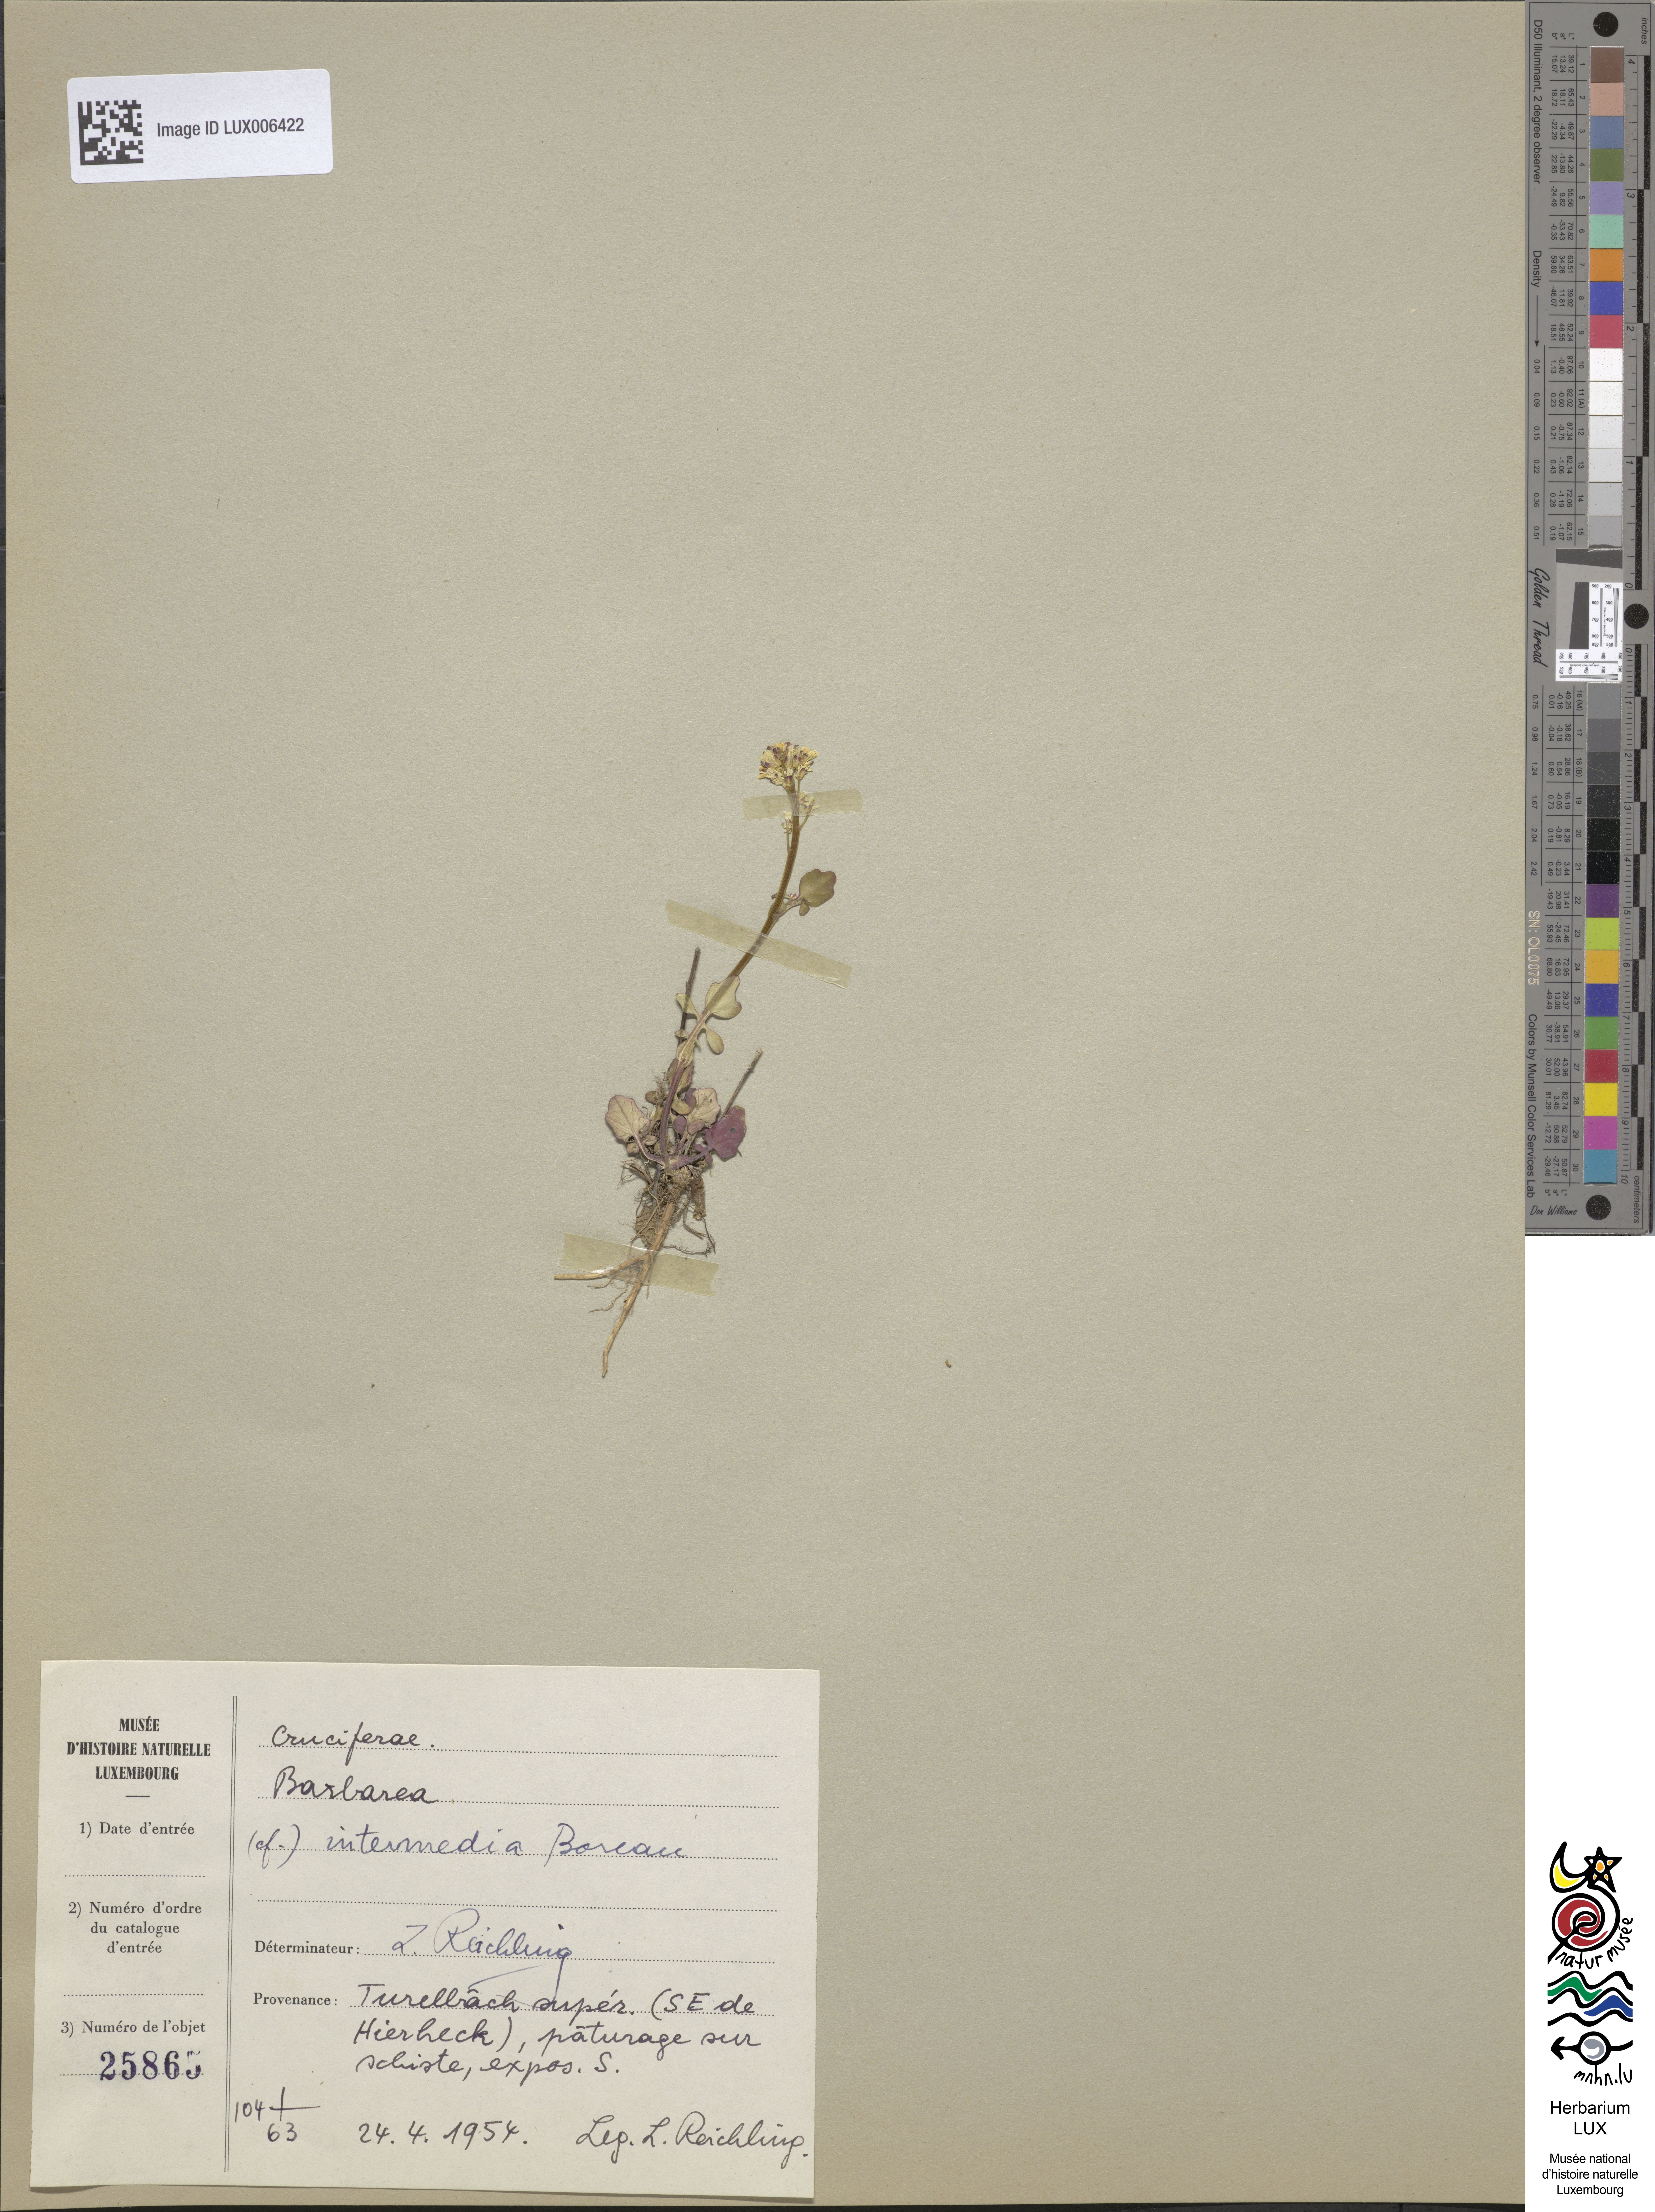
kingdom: Plantae
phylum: Tracheophyta
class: Magnoliopsida
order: Brassicales
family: Brassicaceae
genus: Barbarea
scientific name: Barbarea intermedia
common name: Medium-flowered winter-cress
